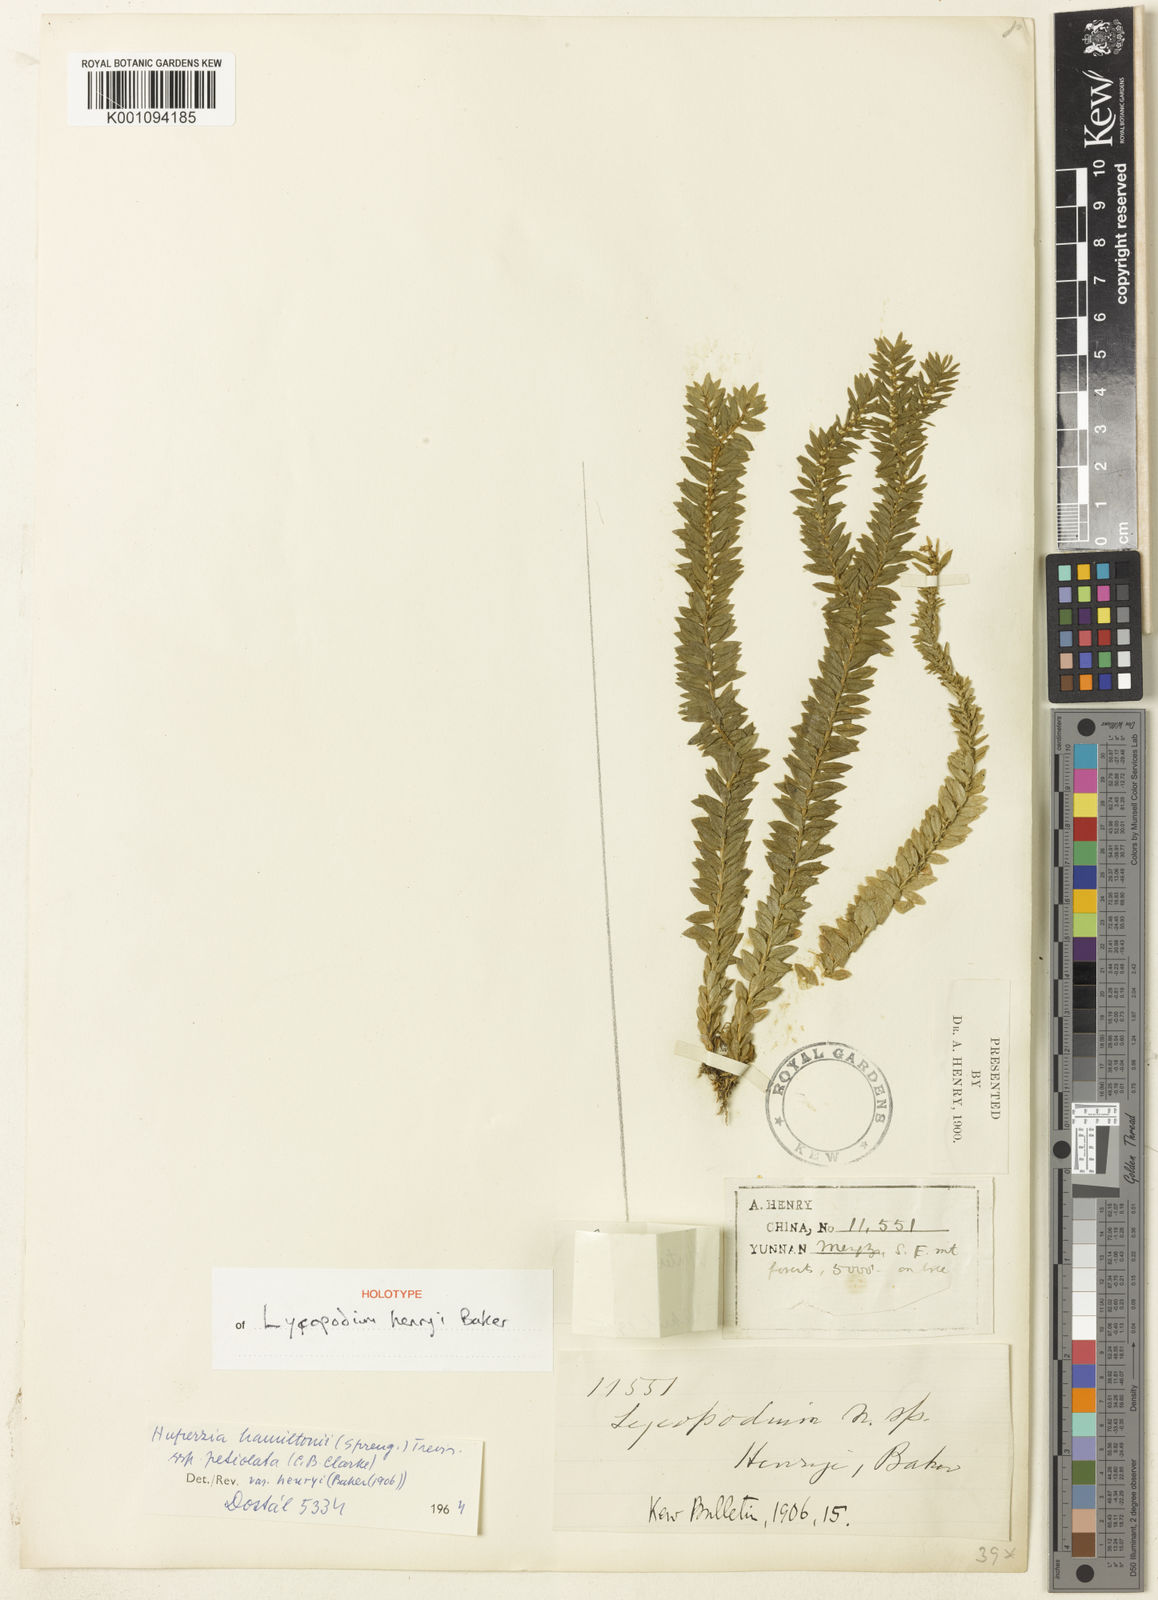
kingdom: Plantae
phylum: Tracheophyta
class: Lycopodiopsida
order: Lycopodiales
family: Lycopodiaceae
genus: Lycopodium
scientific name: Lycopodium
